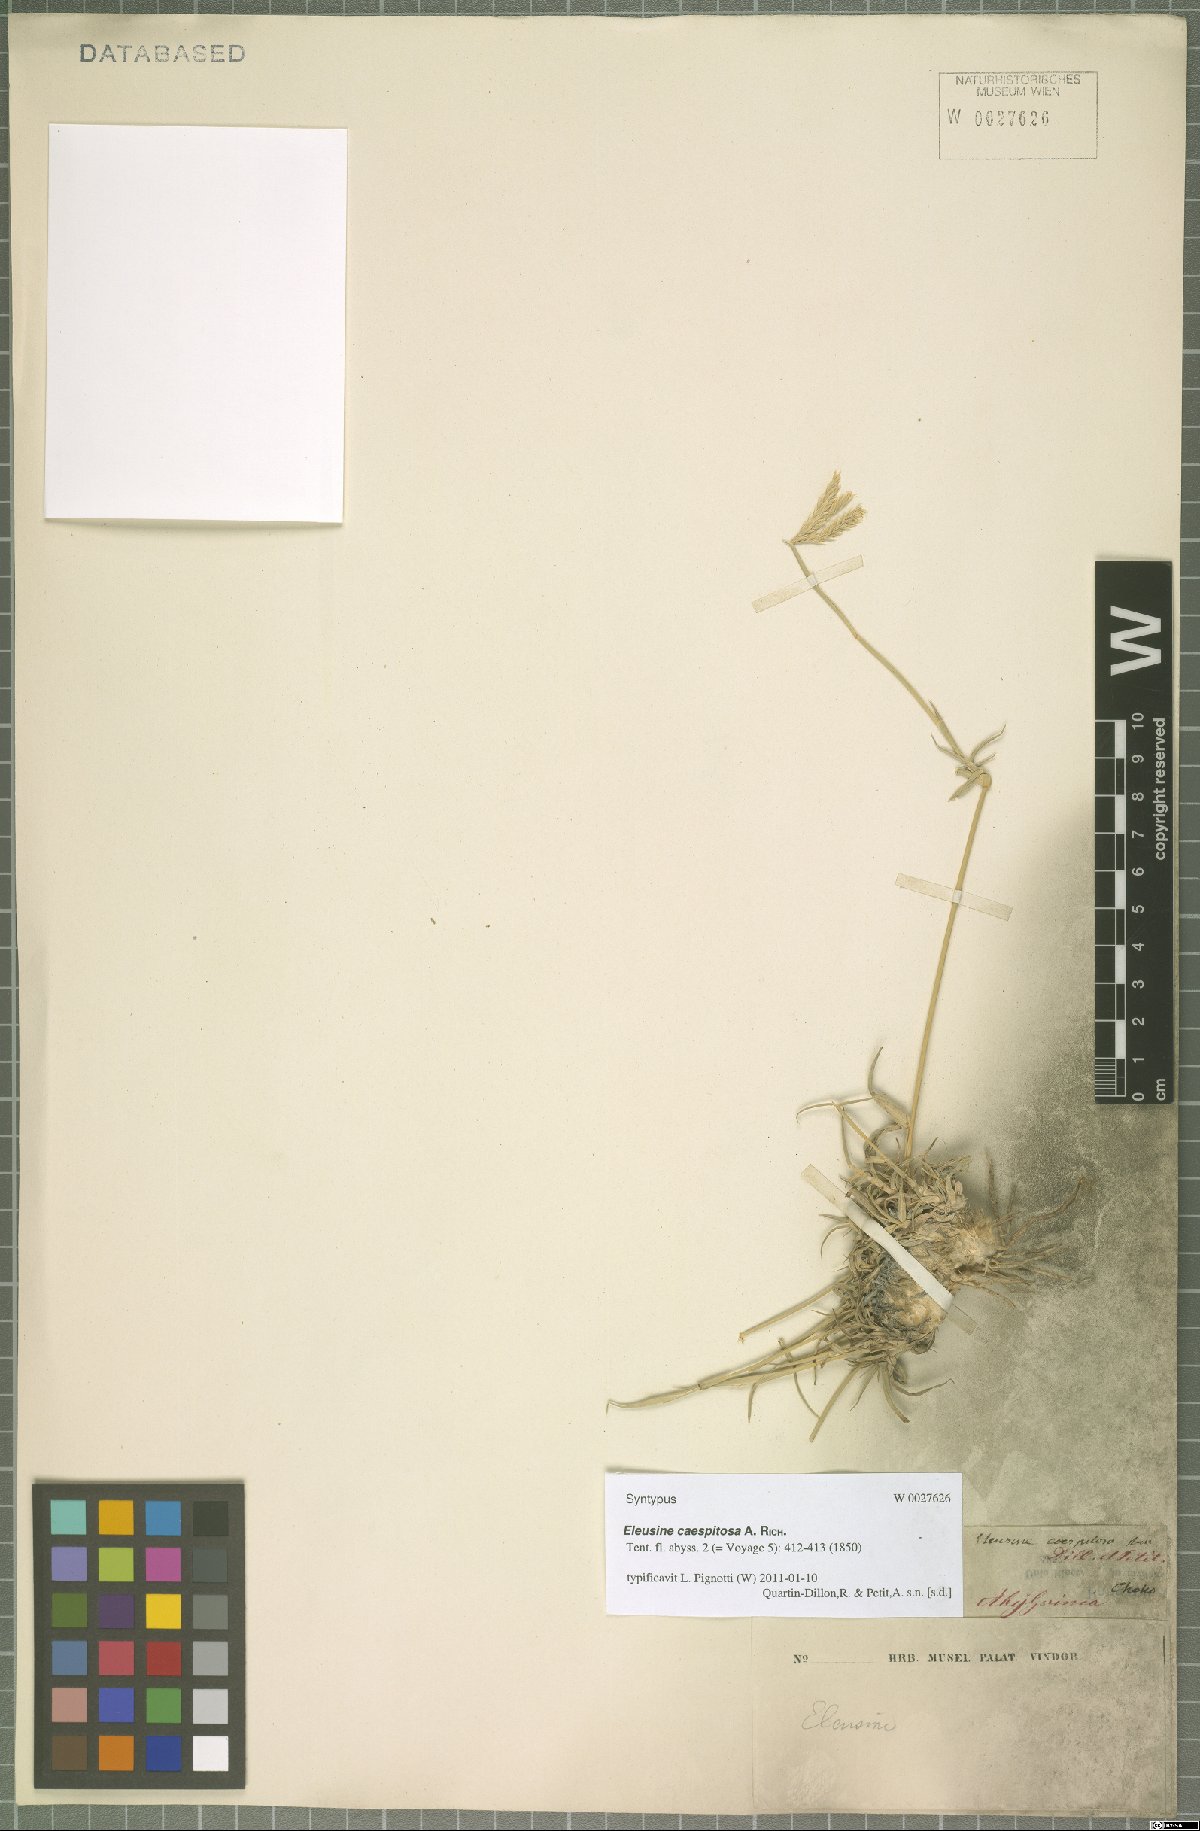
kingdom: Plantae
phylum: Tracheophyta
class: Liliopsida
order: Poales
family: Poaceae
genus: Chloris
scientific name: Chloris flagellifera
